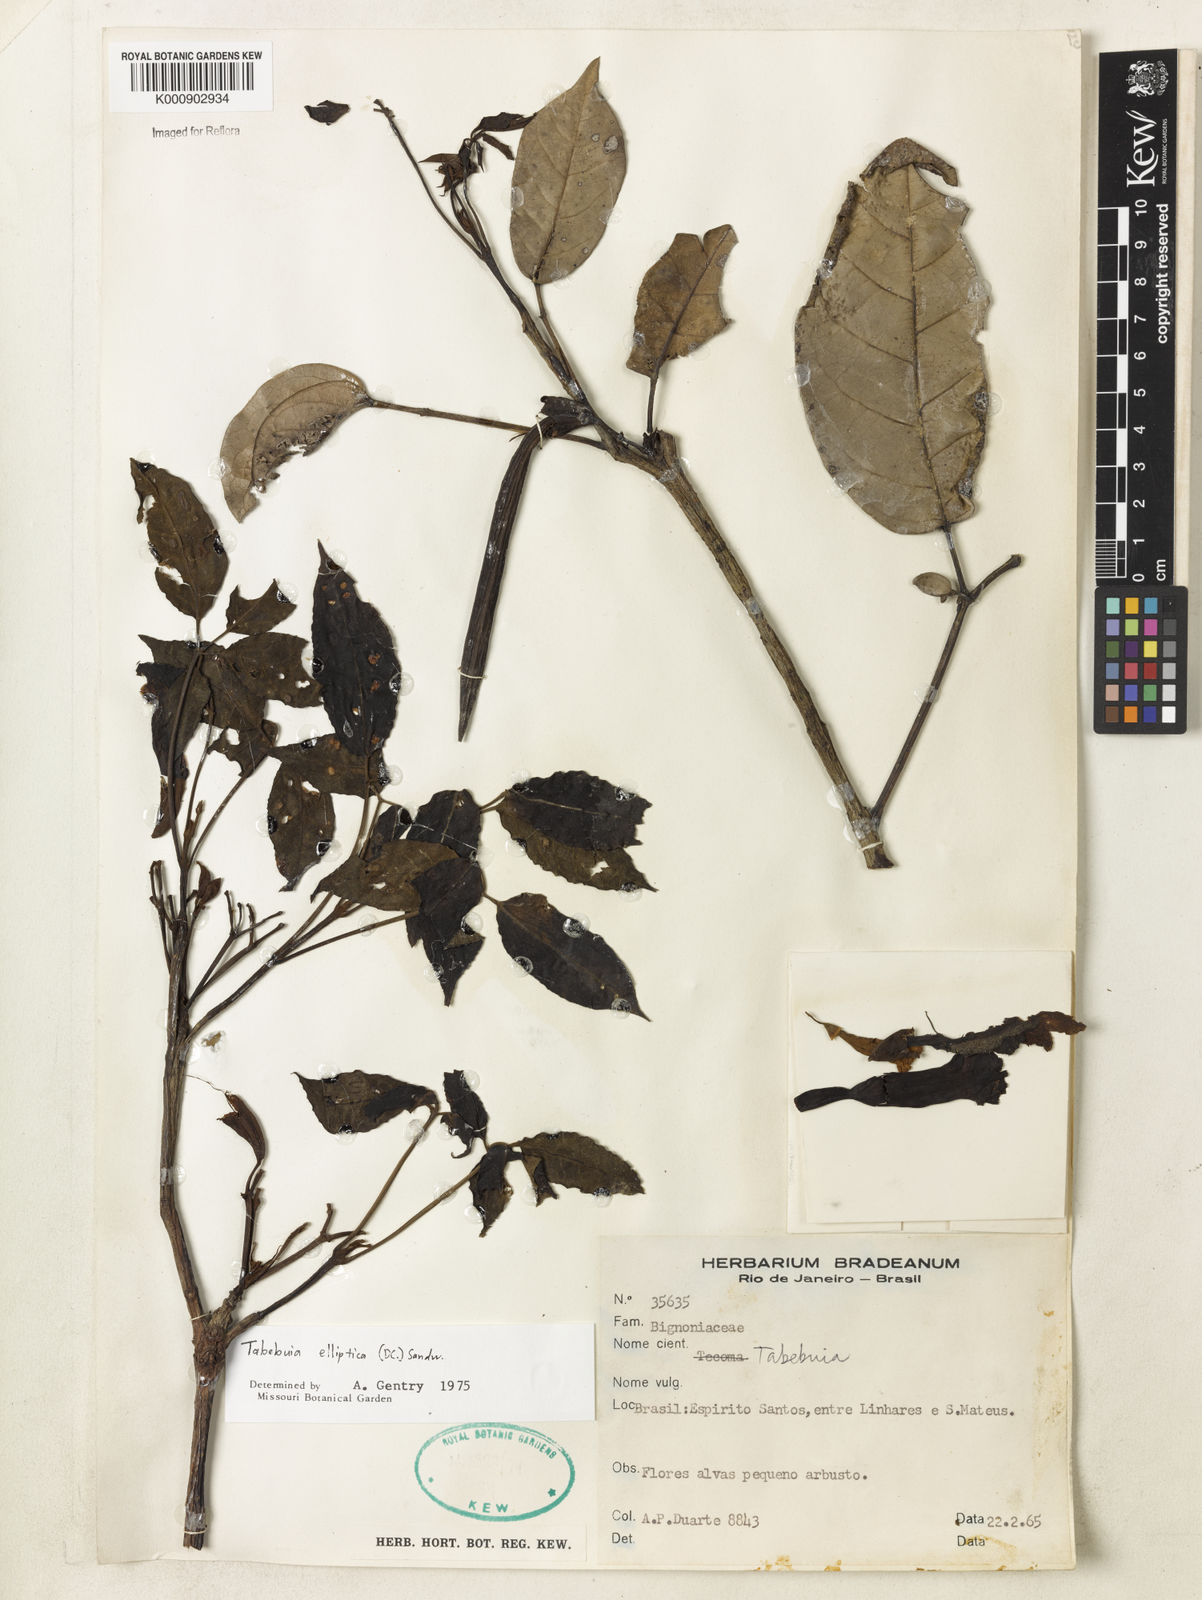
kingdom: Plantae
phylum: Tracheophyta
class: Magnoliopsida
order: Lamiales
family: Bignoniaceae
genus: Tabebuia
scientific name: Tabebuia elliptica
